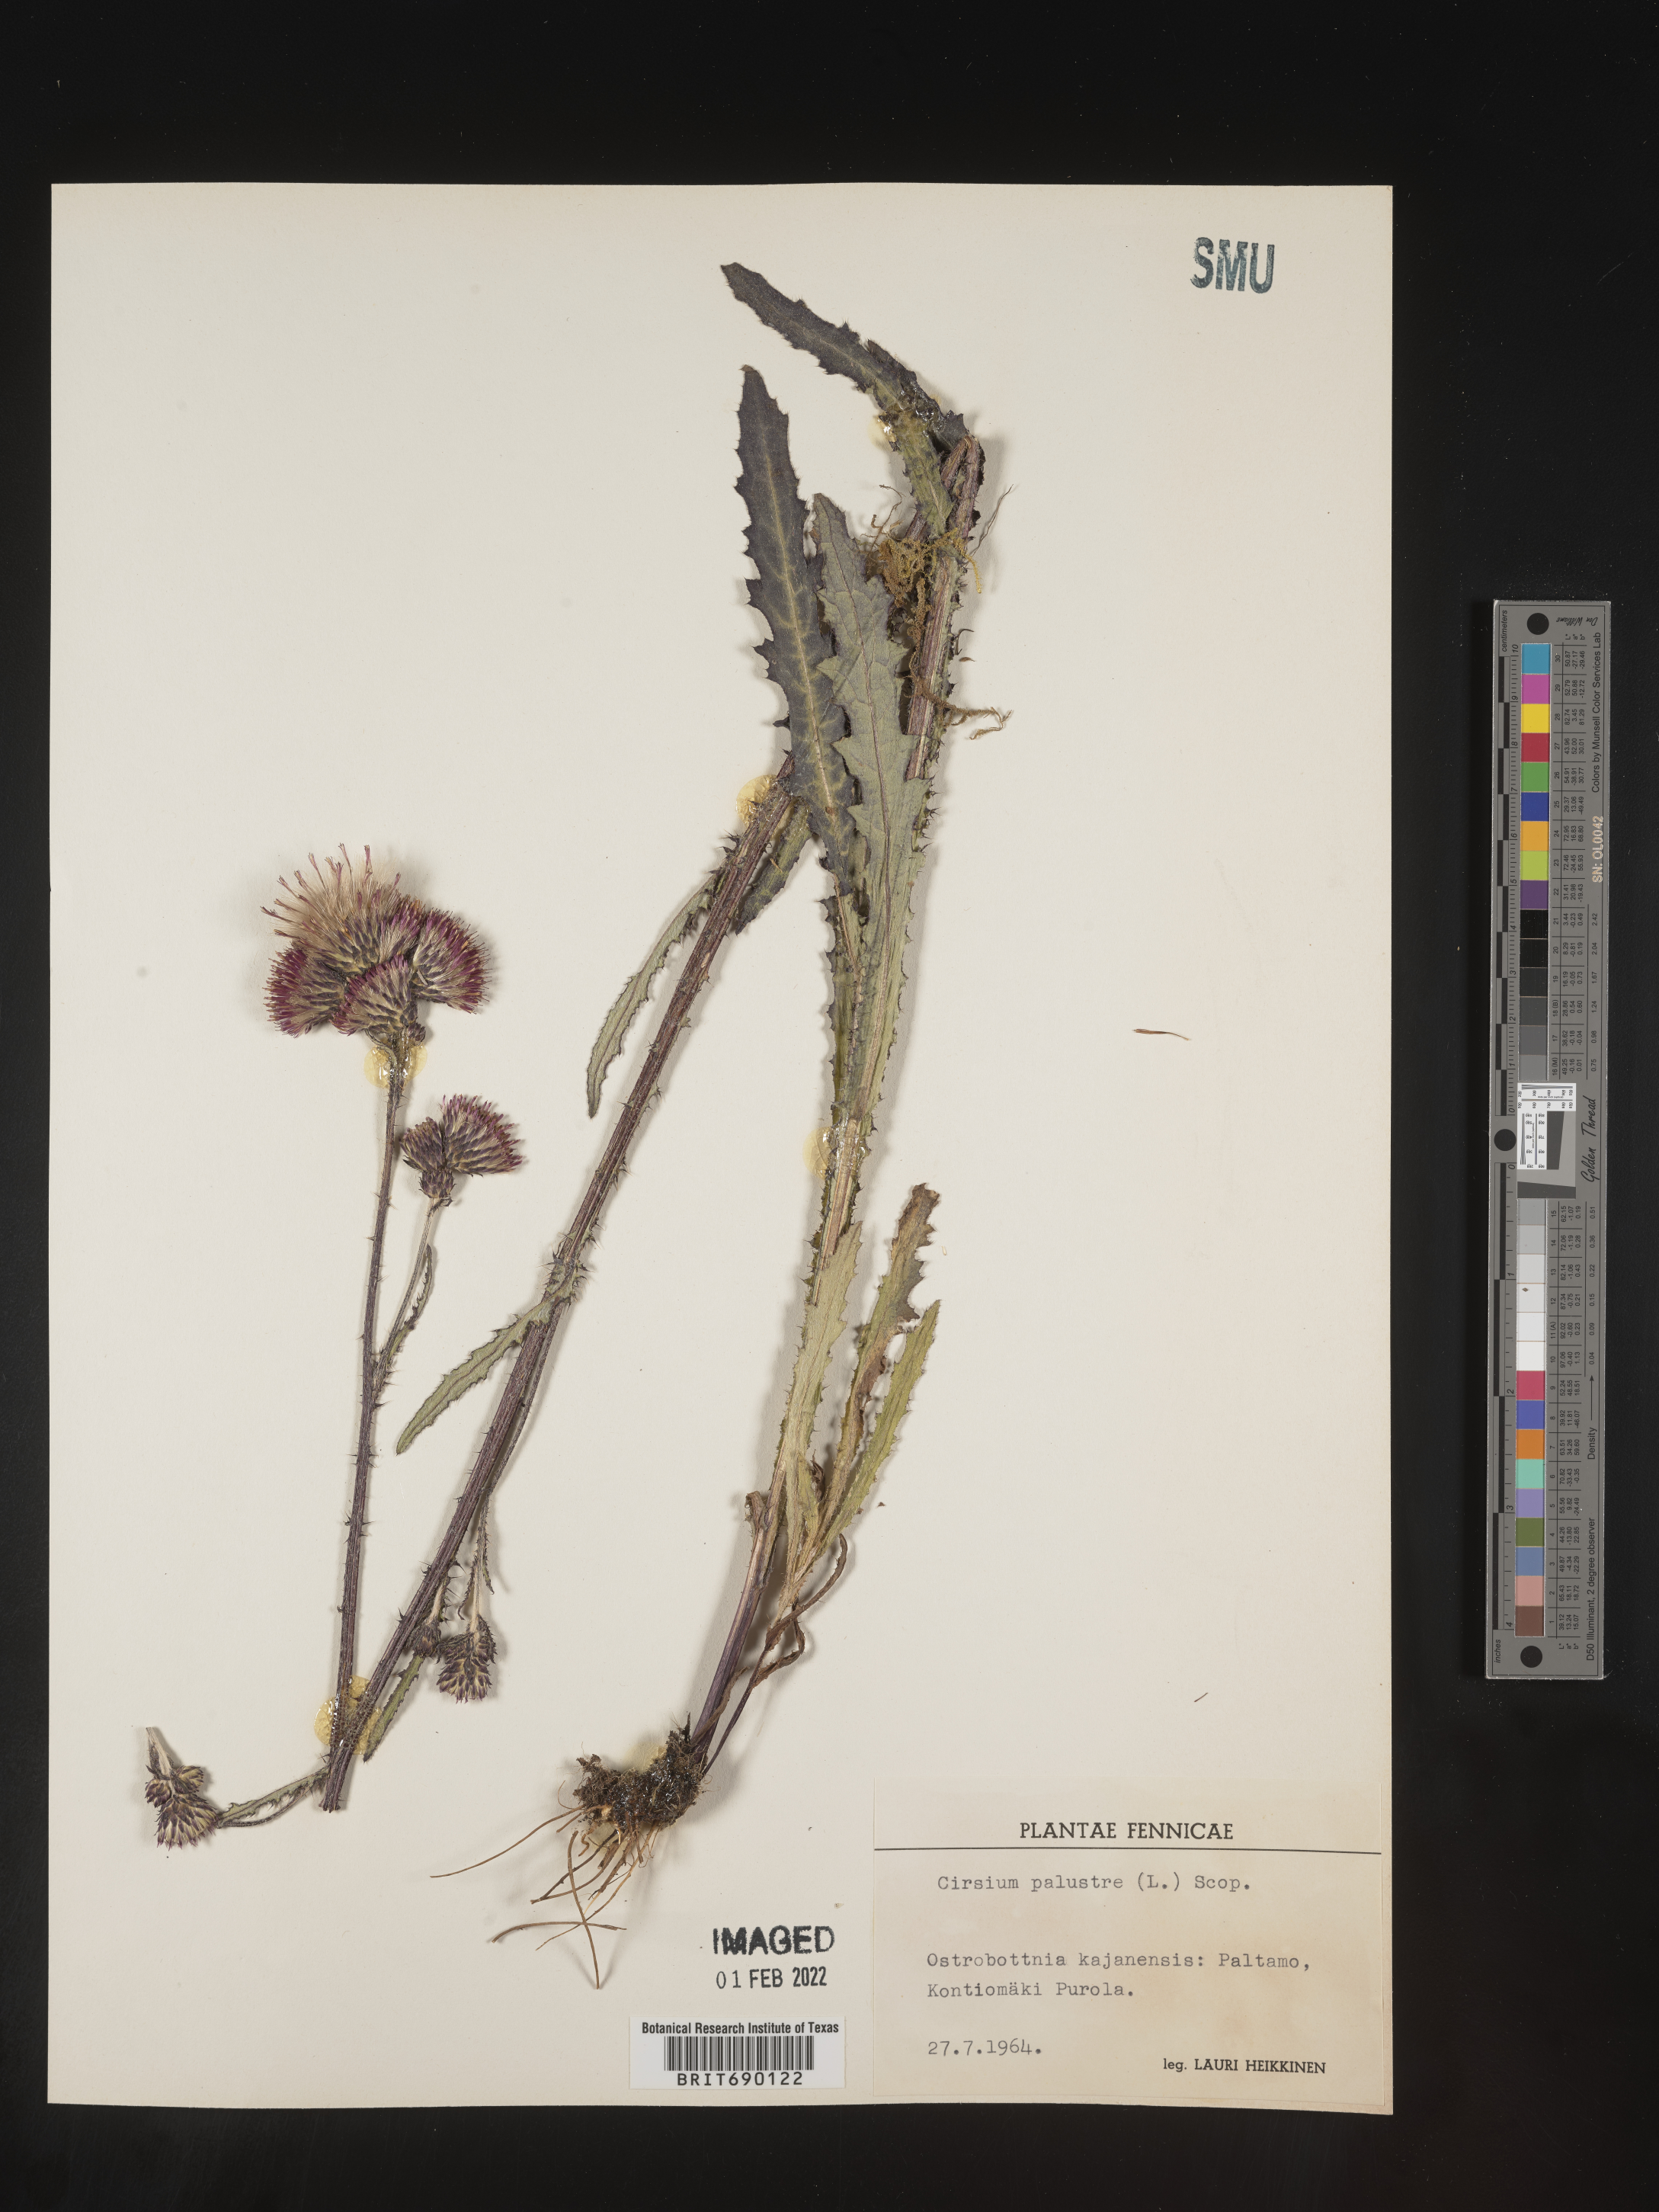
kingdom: Plantae
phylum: Tracheophyta
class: Magnoliopsida
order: Asterales
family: Asteraceae
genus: Cirsium
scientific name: Cirsium
